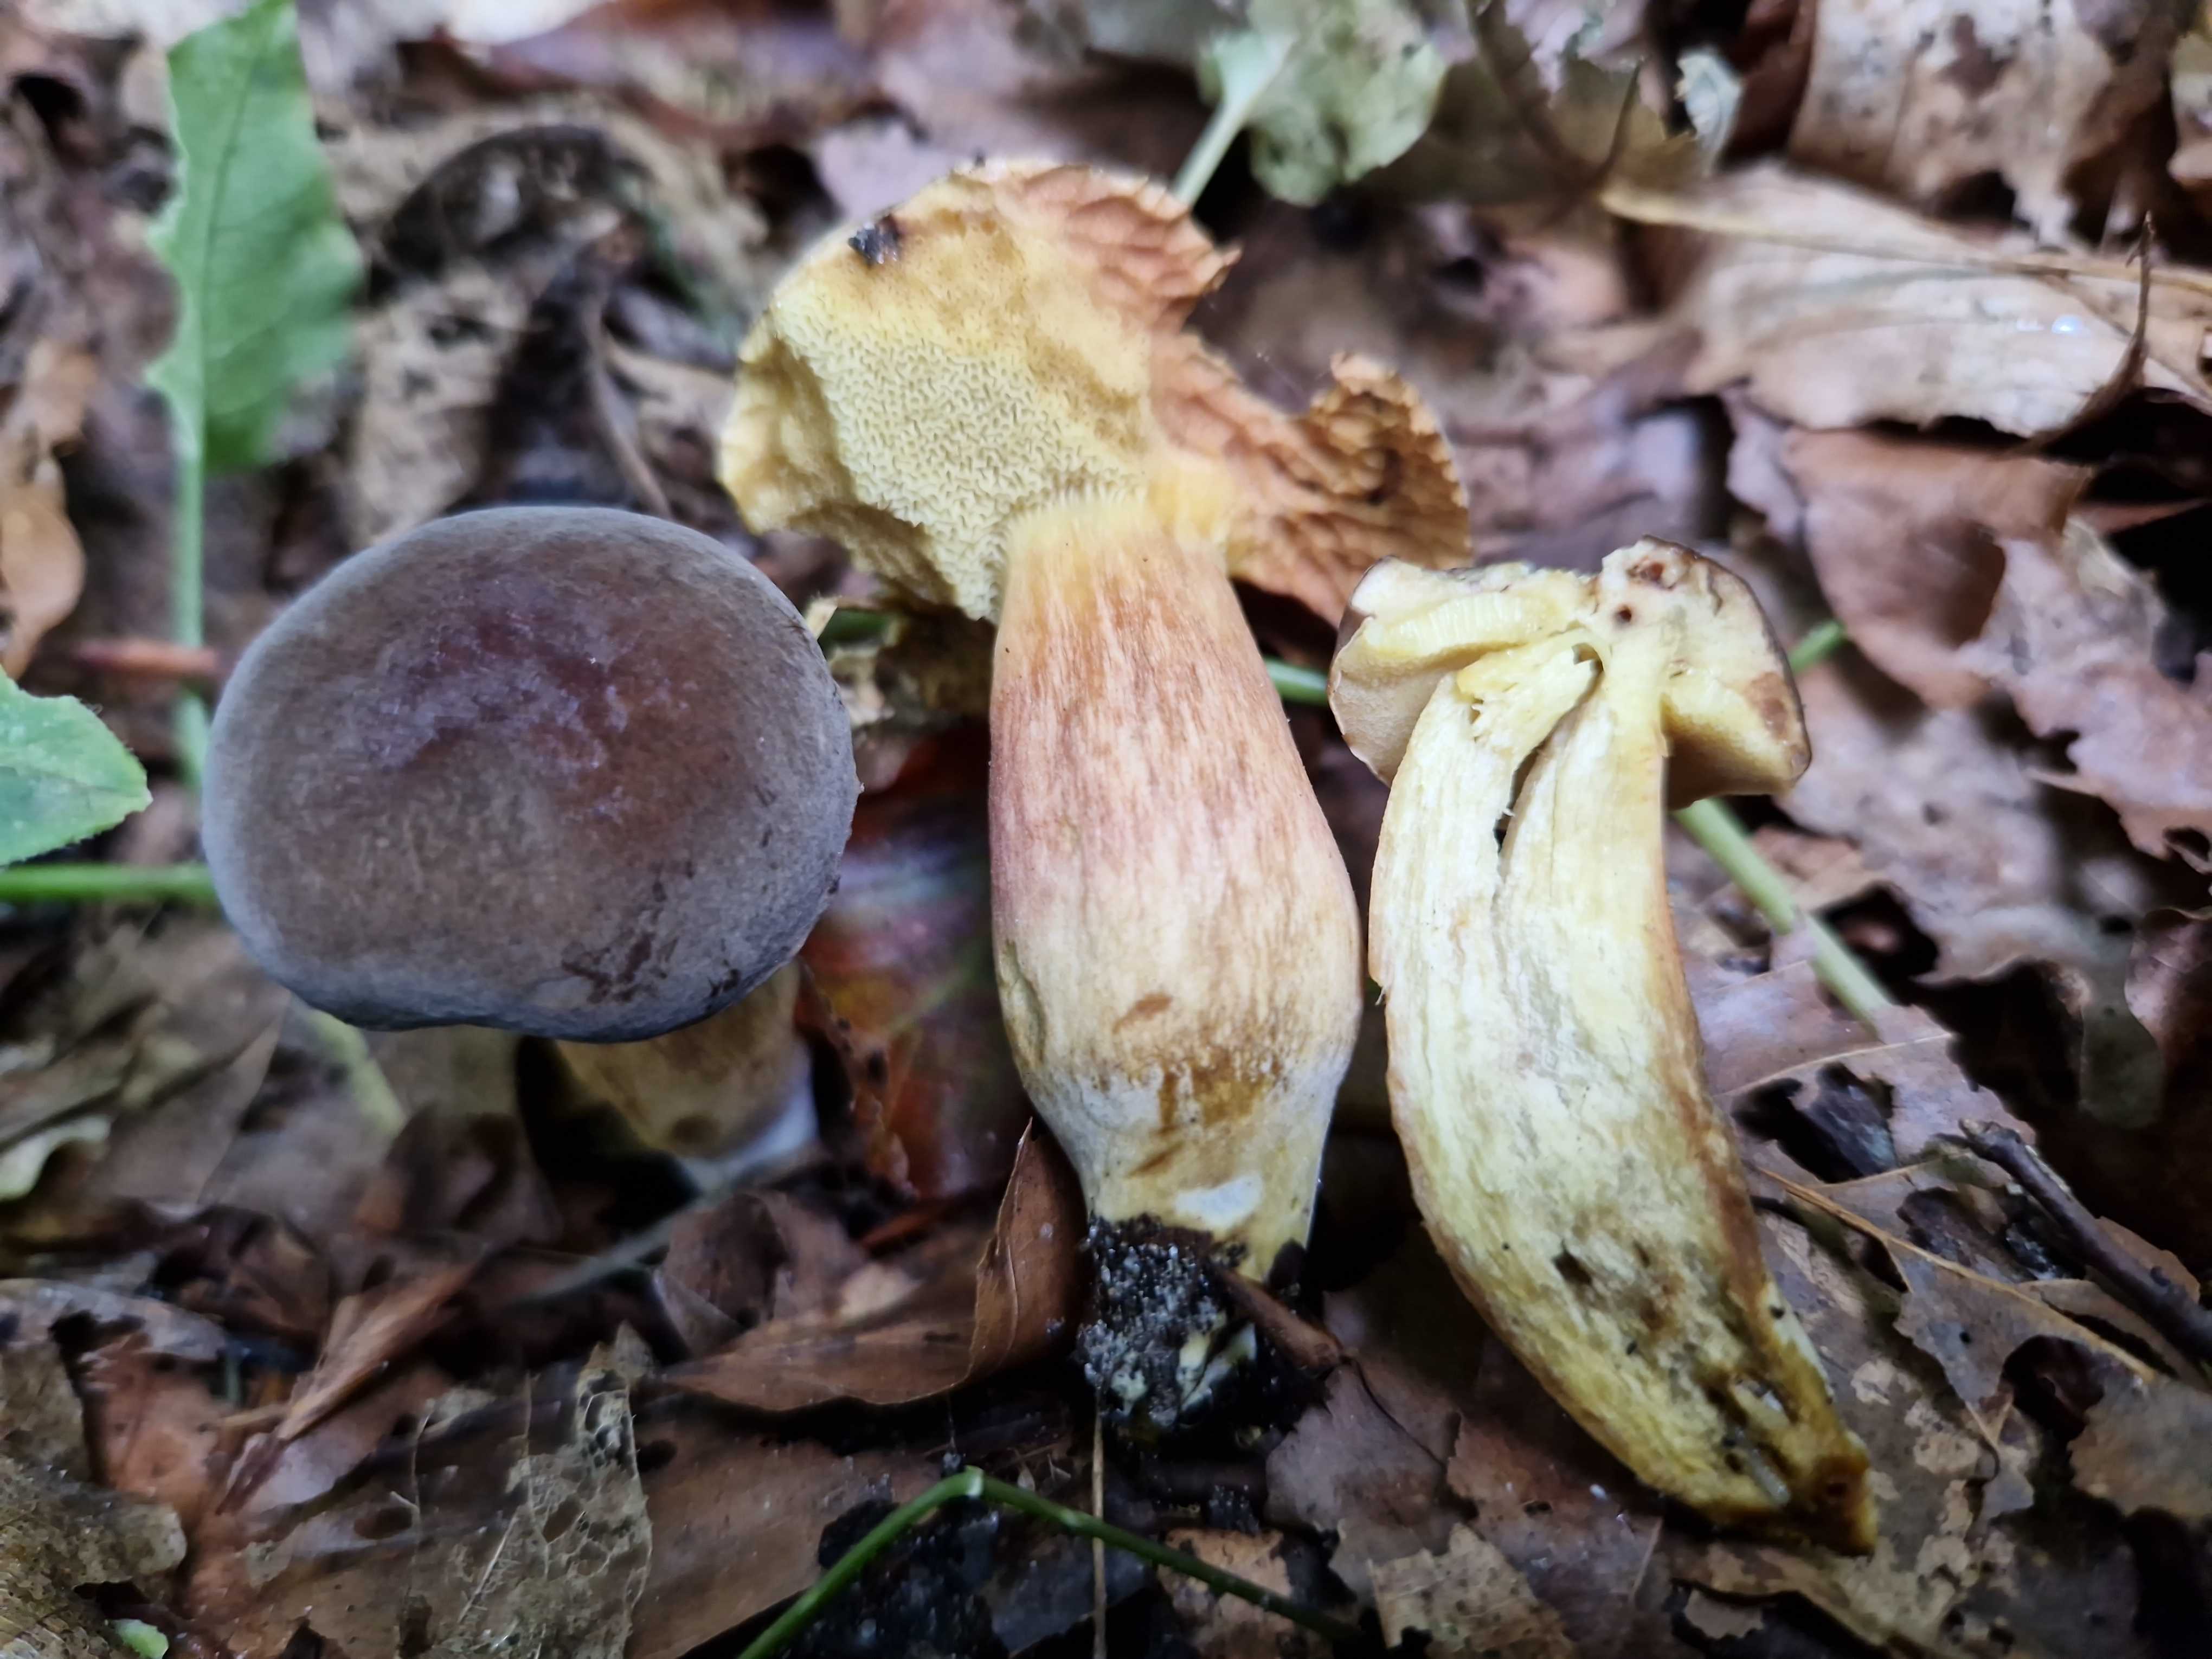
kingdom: Fungi
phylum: Basidiomycota
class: Agaricomycetes
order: Boletales
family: Boletaceae
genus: Hortiboletus
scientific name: Hortiboletus
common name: dværgrørhat
